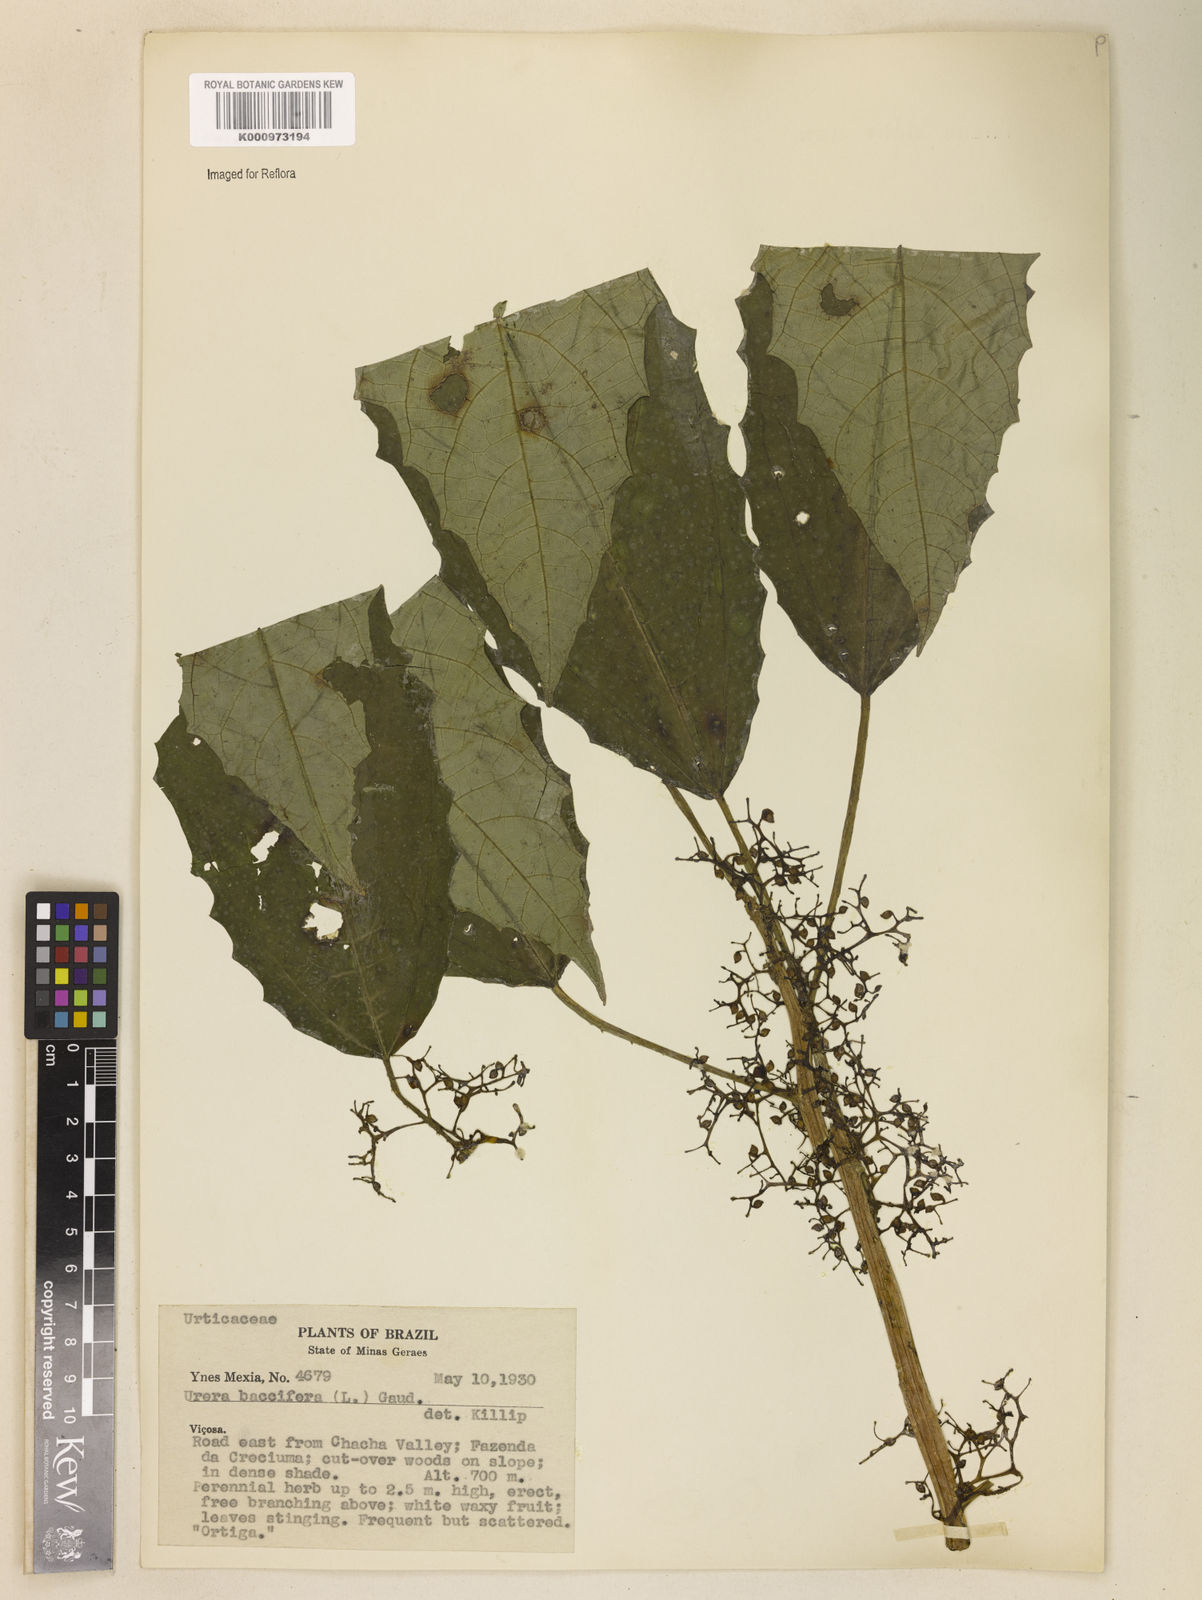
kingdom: Plantae
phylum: Tracheophyta
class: Magnoliopsida
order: Rosales
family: Urticaceae
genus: Urera
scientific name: Urera baccifera
